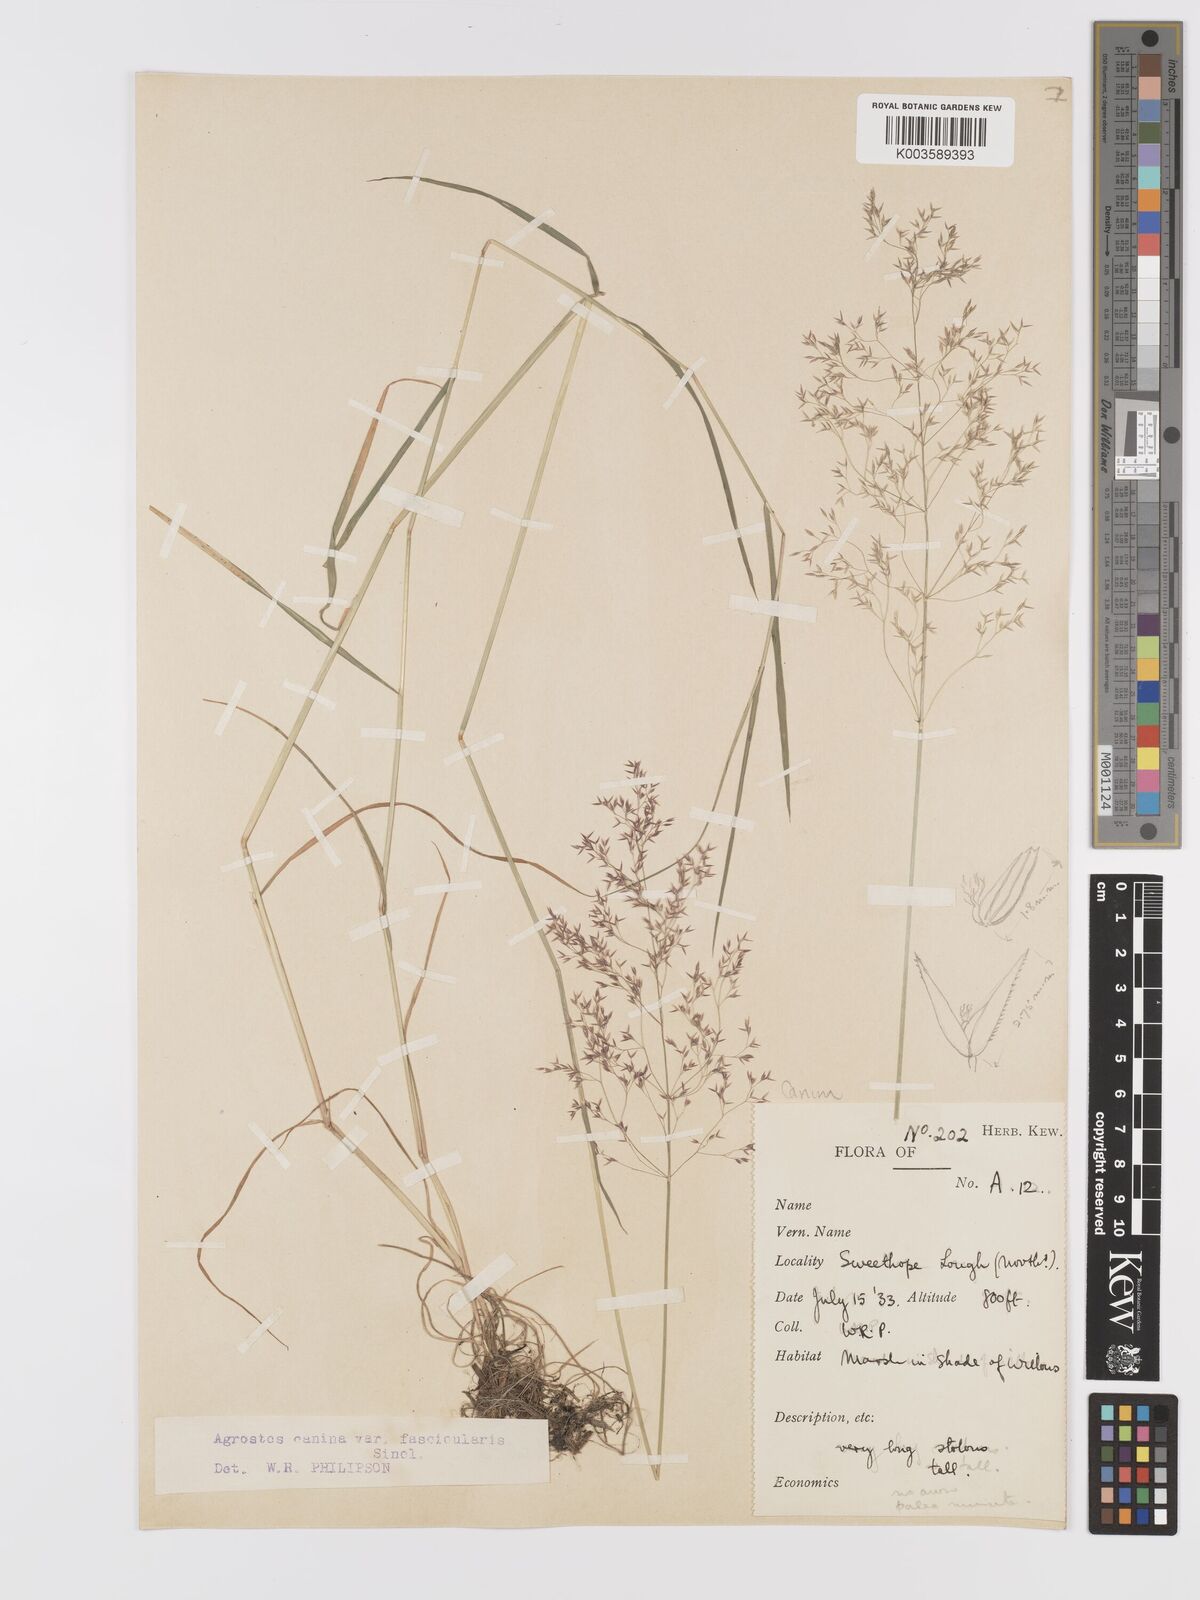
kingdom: Plantae
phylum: Tracheophyta
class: Liliopsida
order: Poales
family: Poaceae
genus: Agrostis
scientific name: Agrostis canina
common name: Velvet bent
